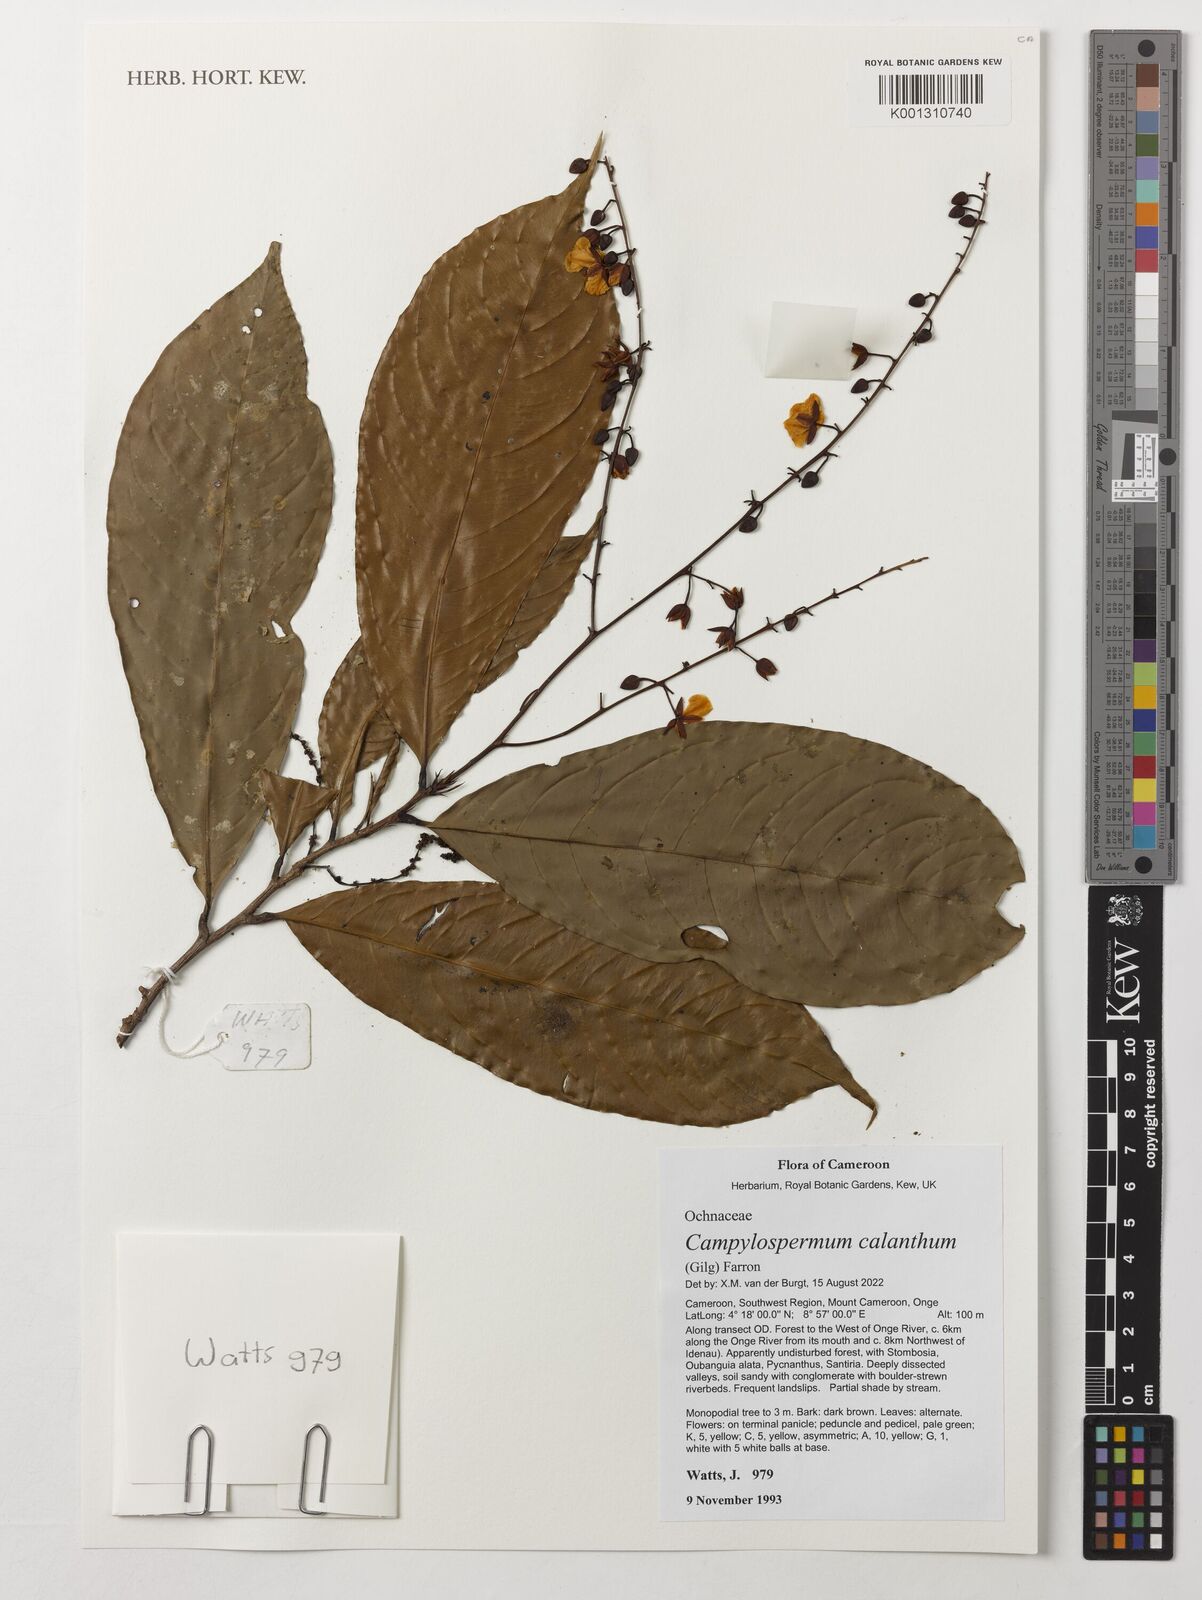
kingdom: Plantae
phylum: Tracheophyta
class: Magnoliopsida
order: Malpighiales
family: Ochnaceae
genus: Campylospermum
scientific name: Campylospermum calanthum
